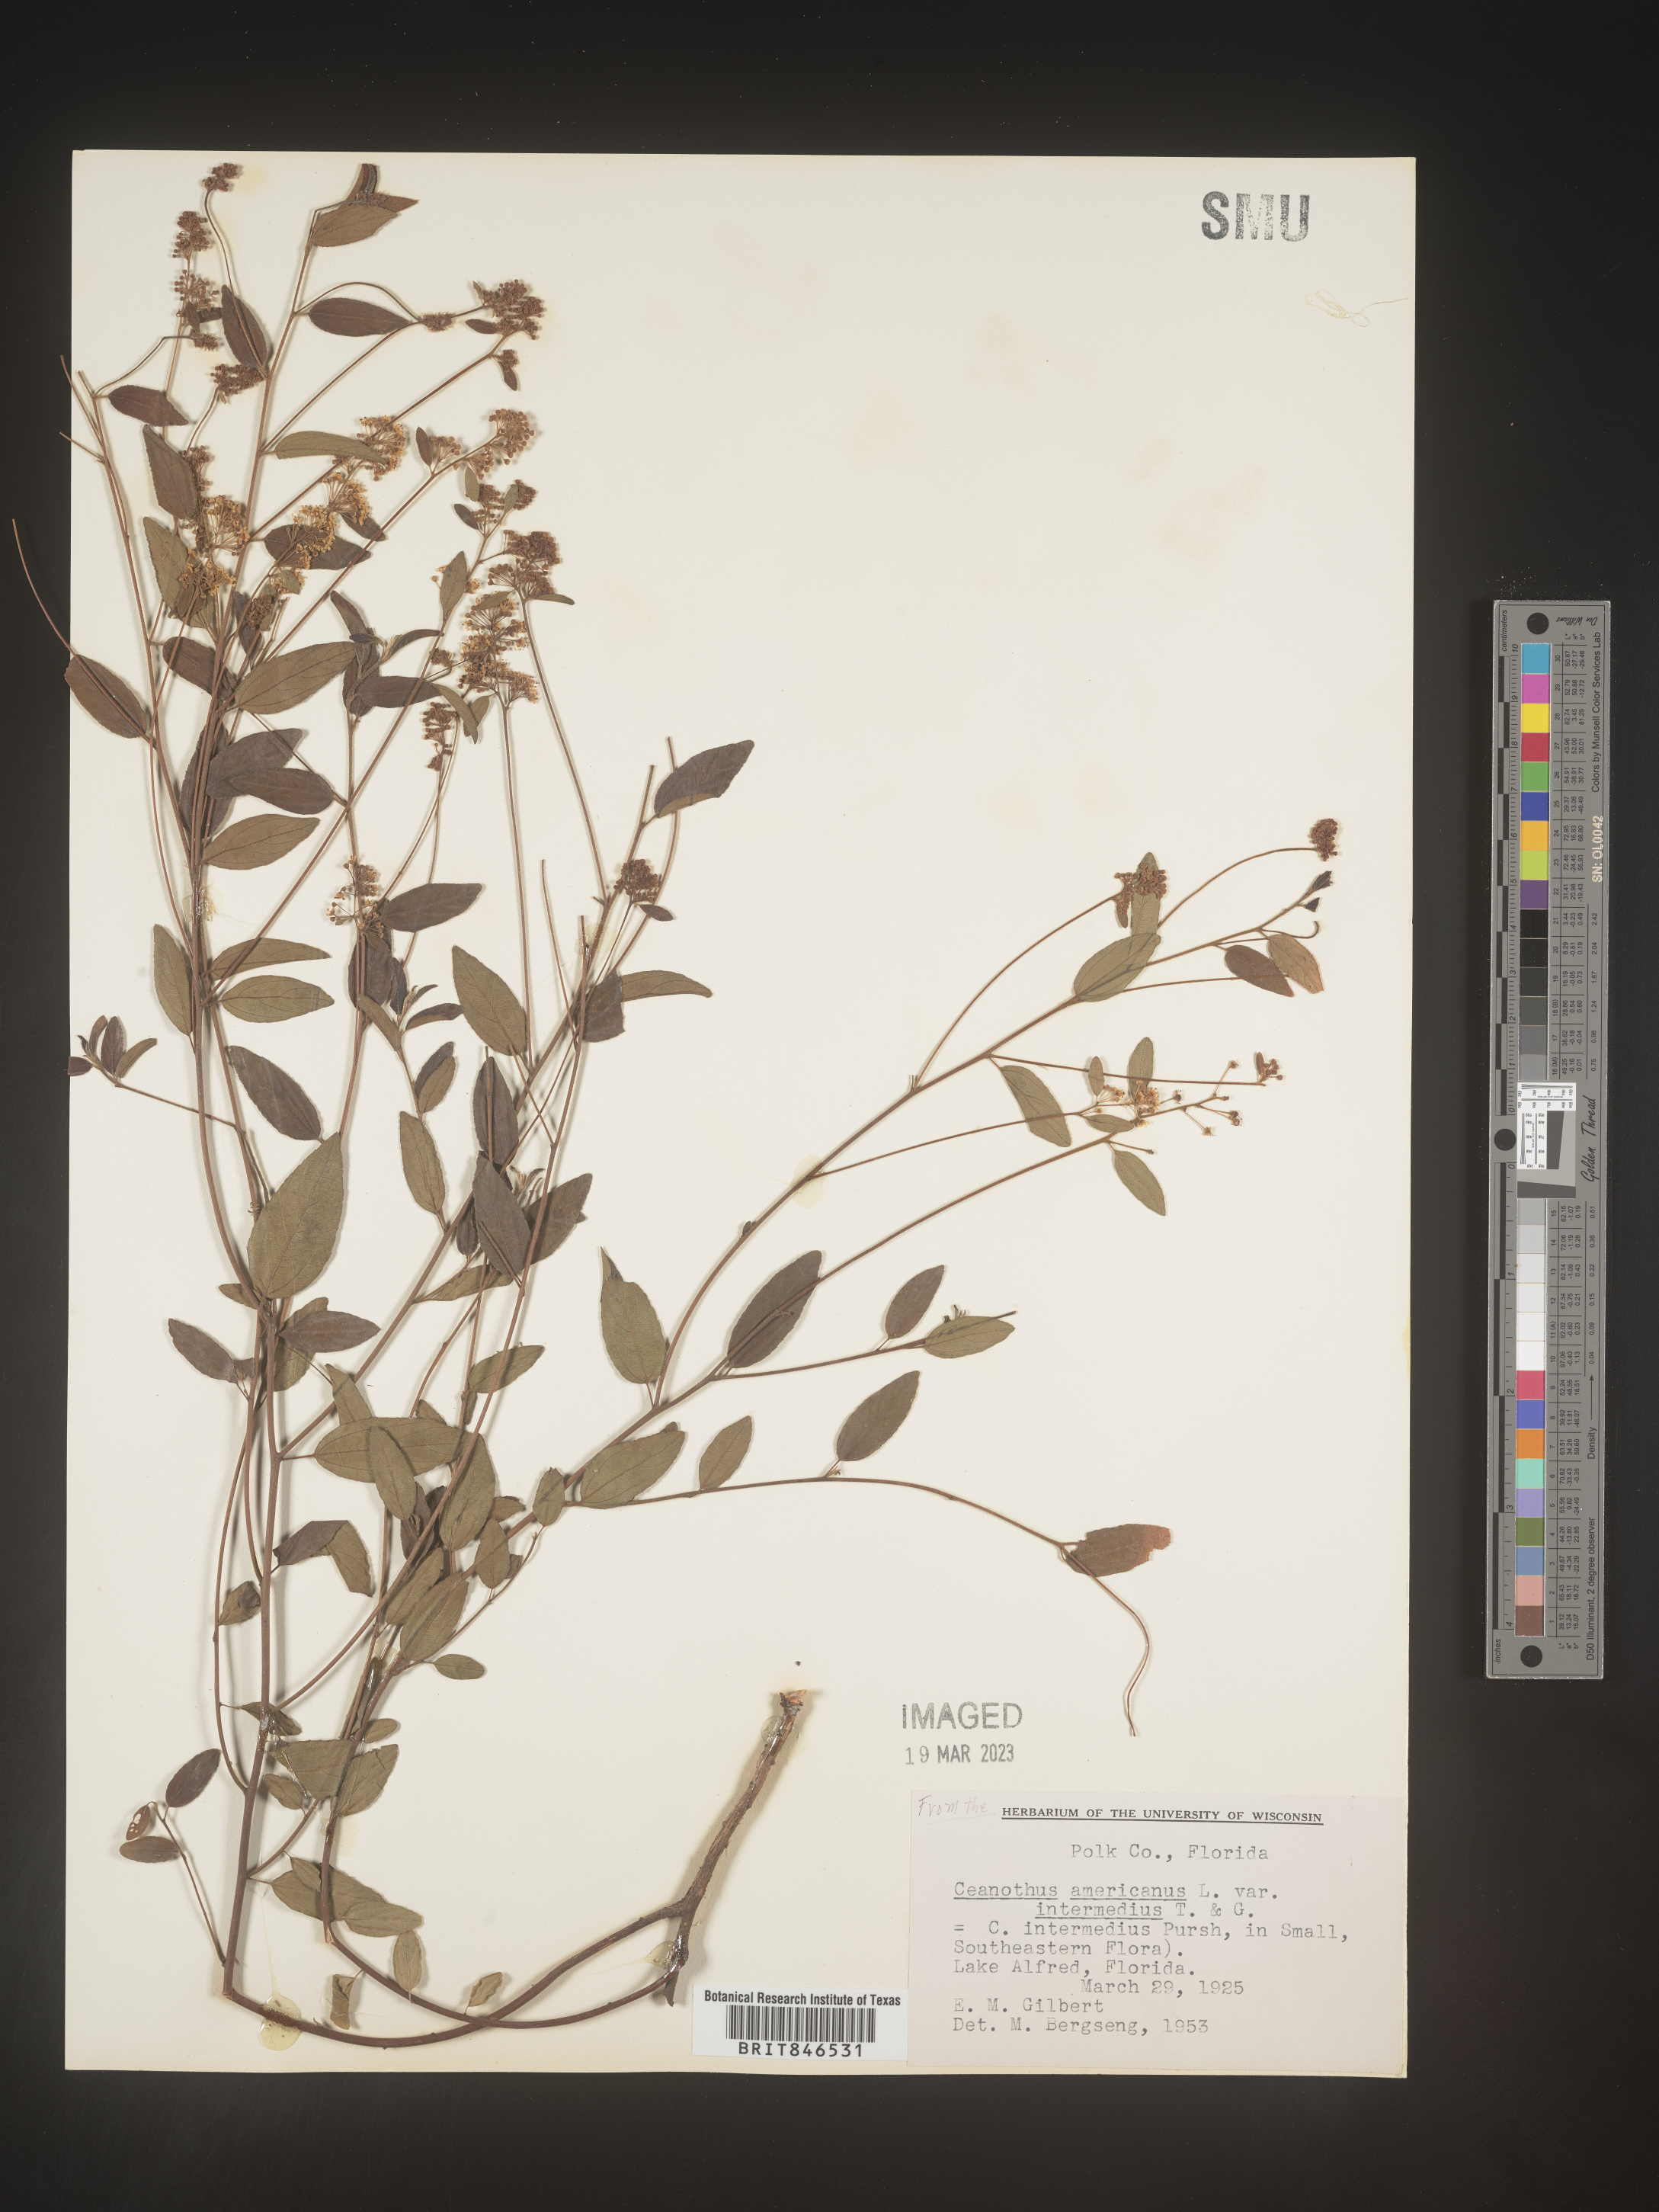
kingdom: Plantae
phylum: Tracheophyta
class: Magnoliopsida
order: Rosales
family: Rhamnaceae
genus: Ceanothus
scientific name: Ceanothus americanus
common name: Redroot
